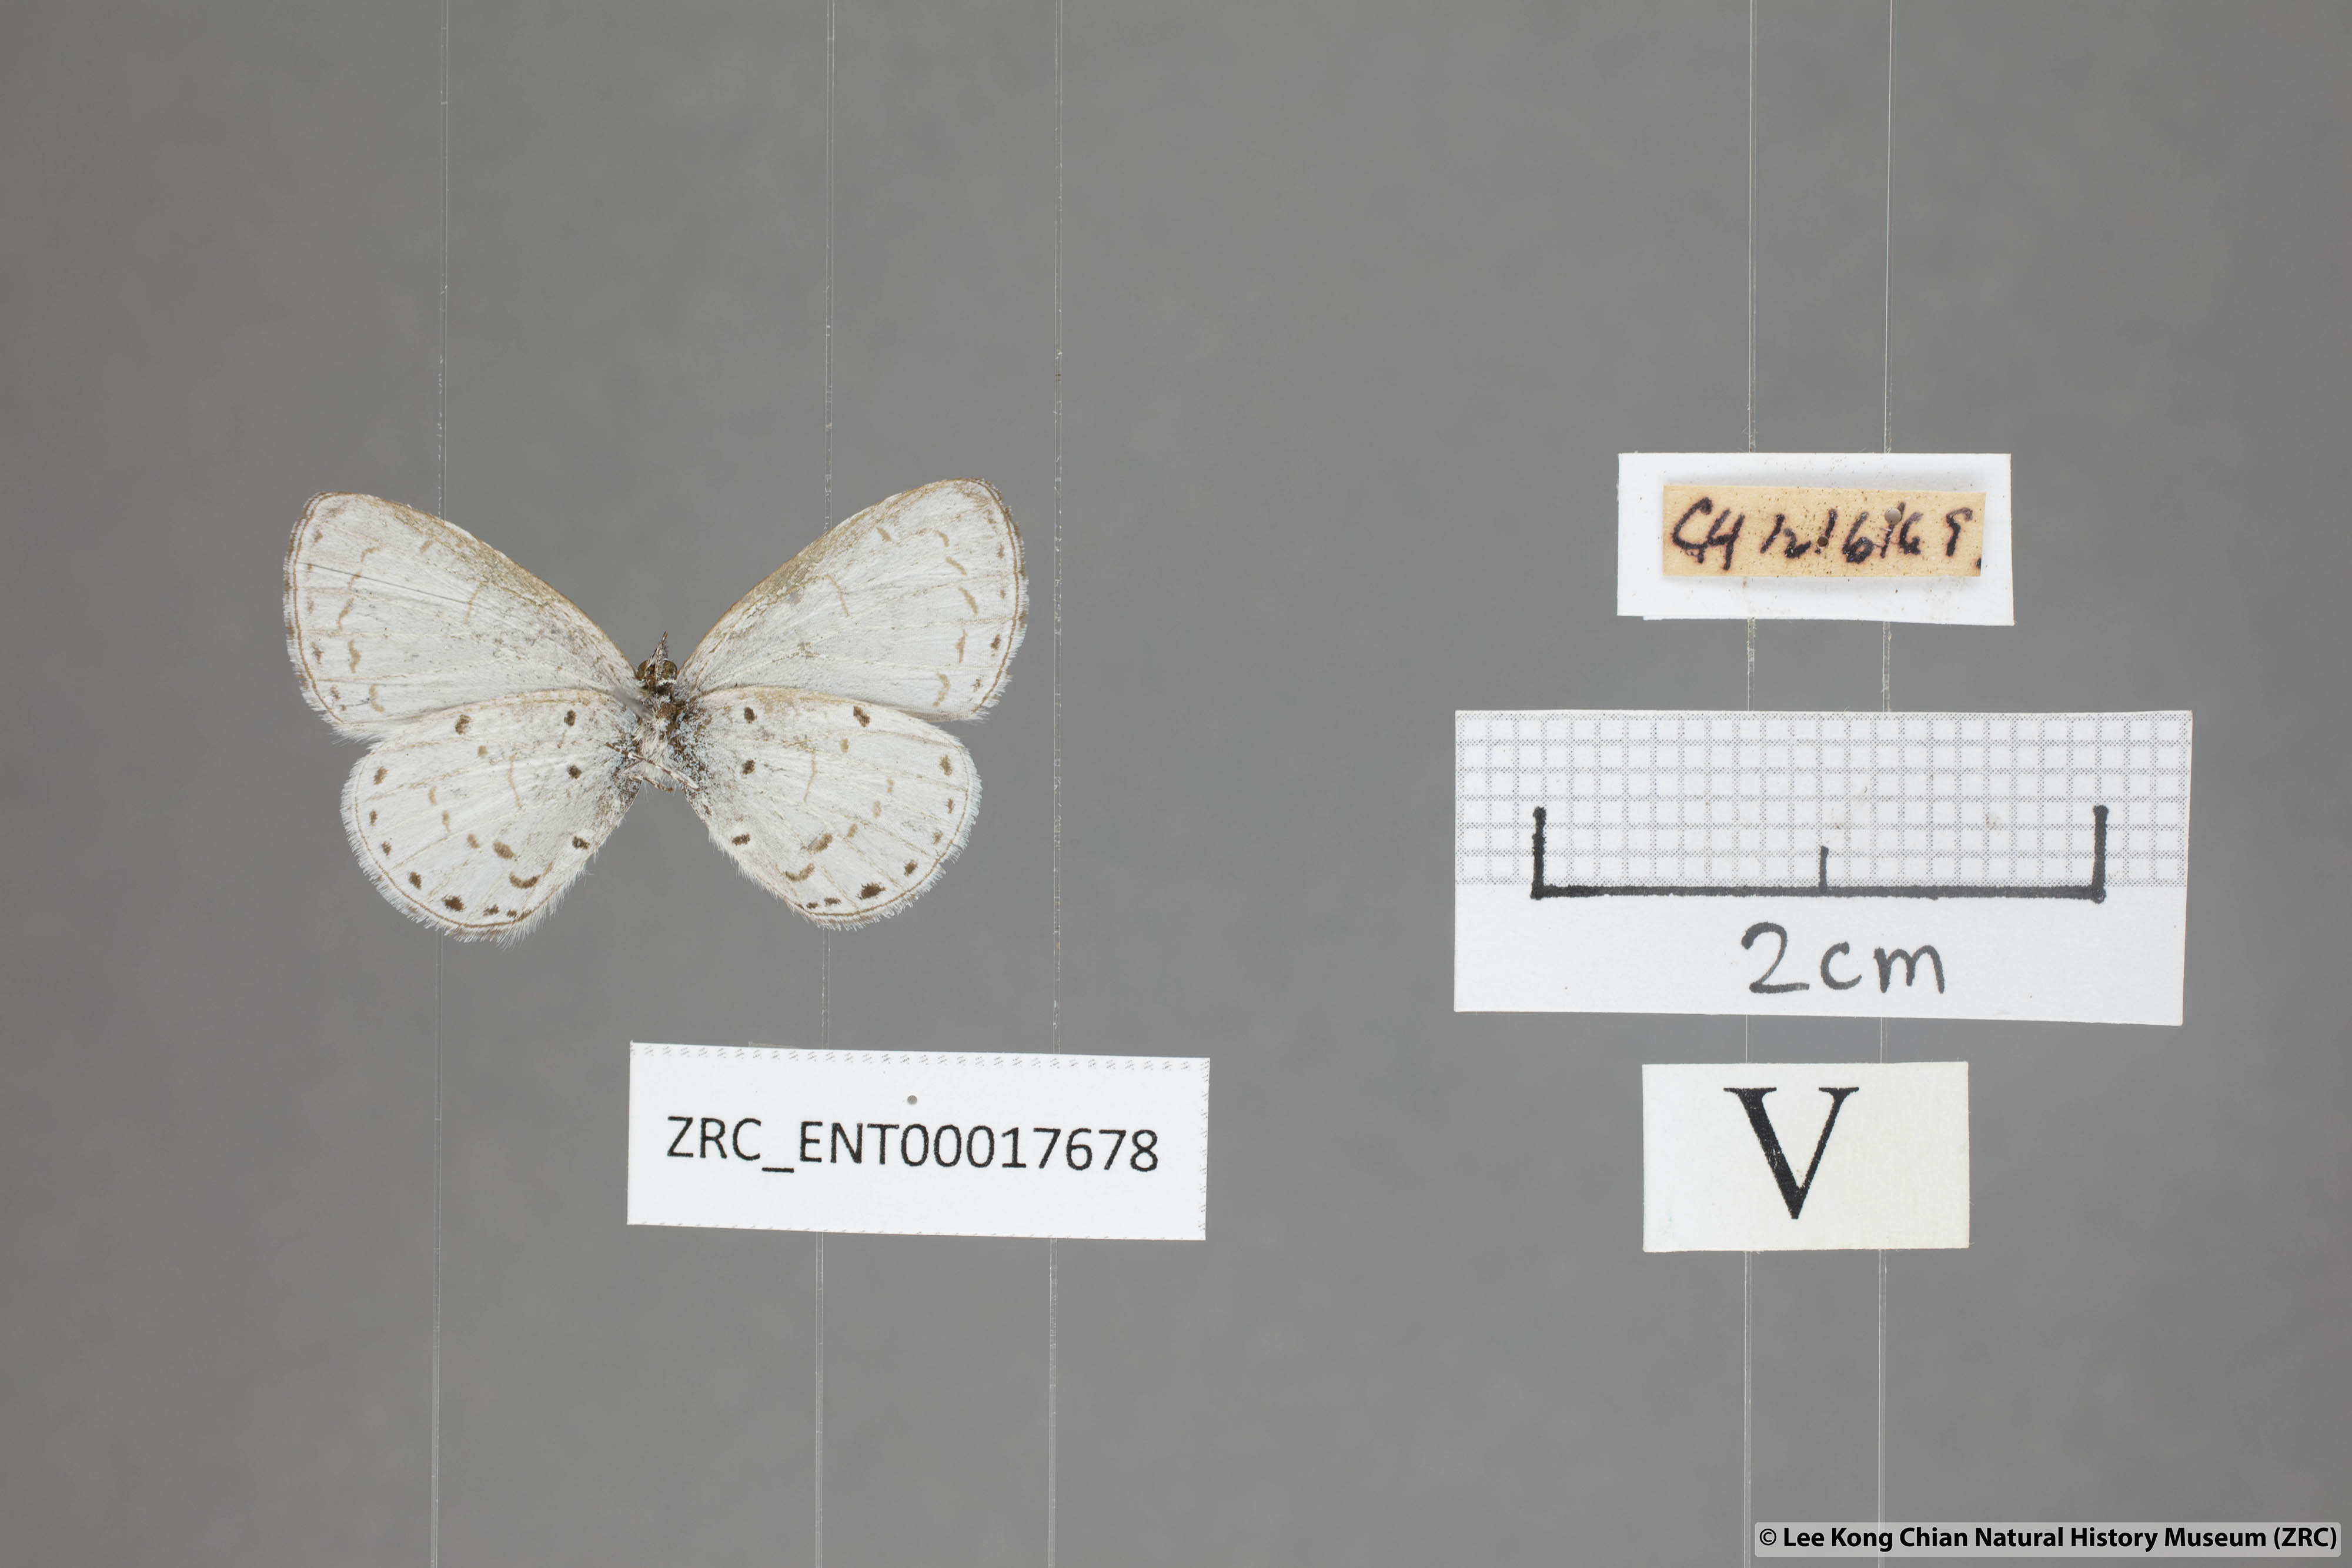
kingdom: Animalia
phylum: Arthropoda
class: Insecta
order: Lepidoptera
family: Lycaenidae
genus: Udara
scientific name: Udara camenae
